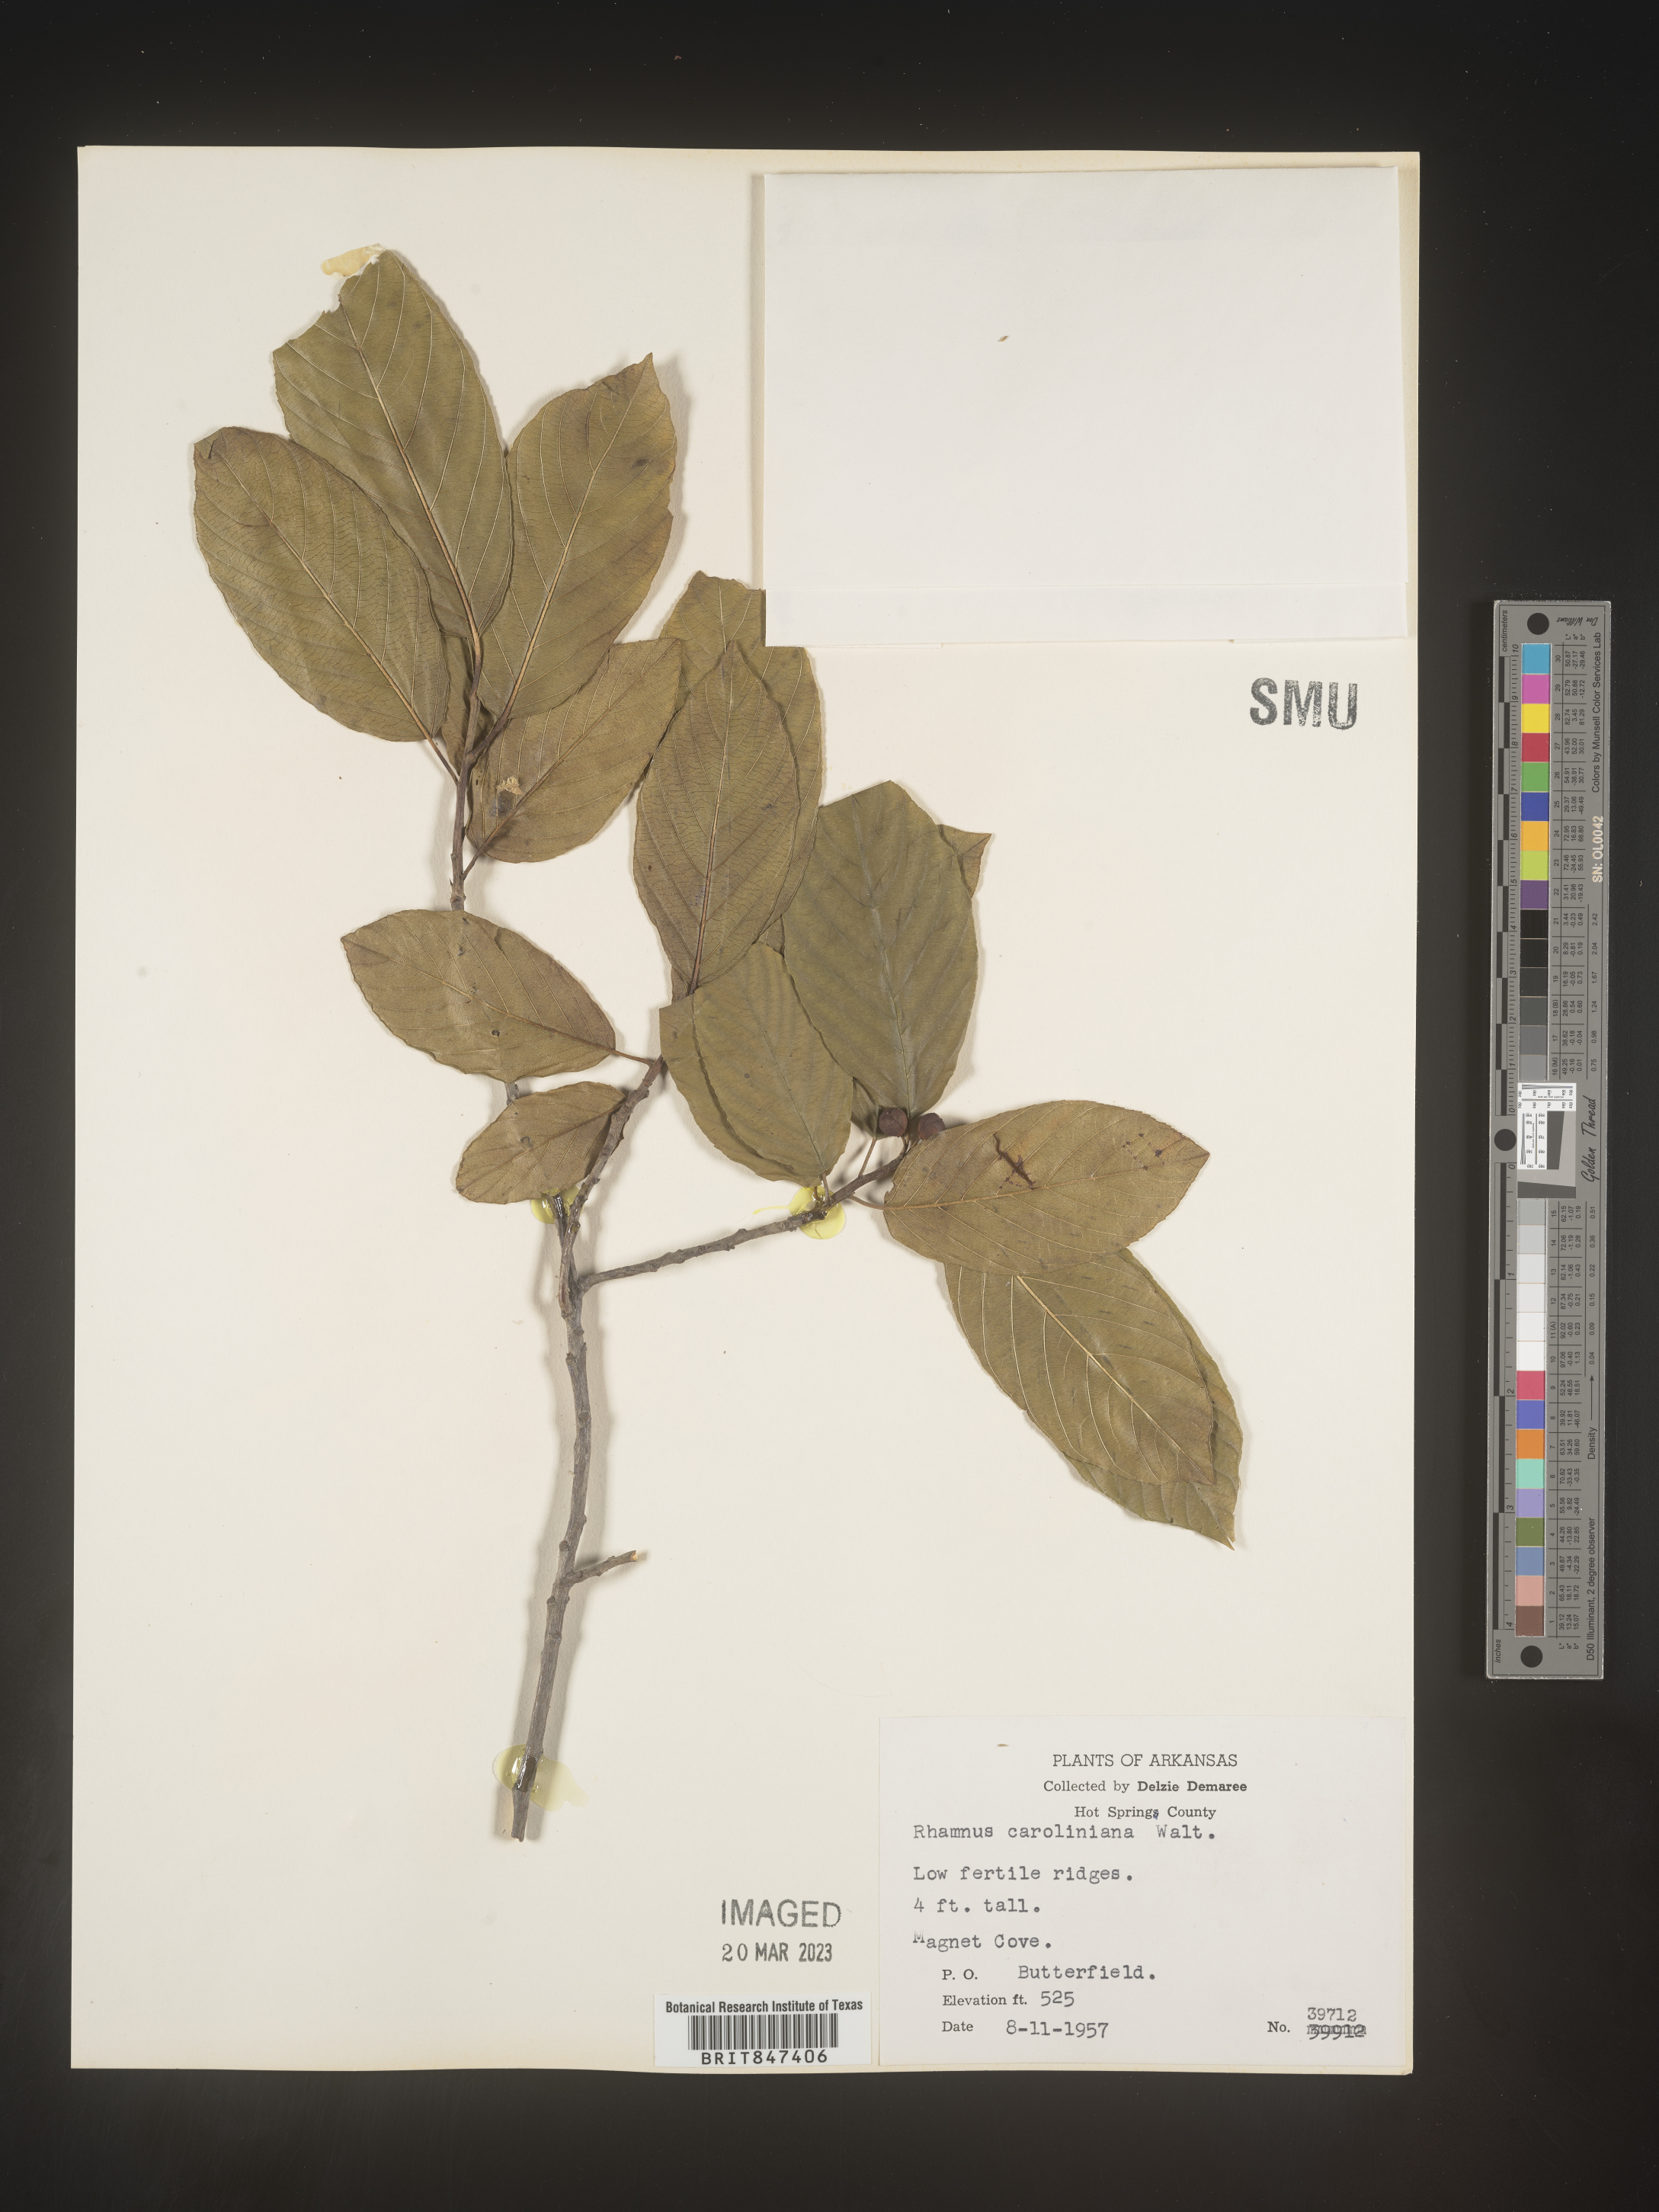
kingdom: Plantae
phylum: Tracheophyta
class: Magnoliopsida
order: Rosales
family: Rhamnaceae
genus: Frangula
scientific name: Frangula caroliniana
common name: Carolina buckthorn
